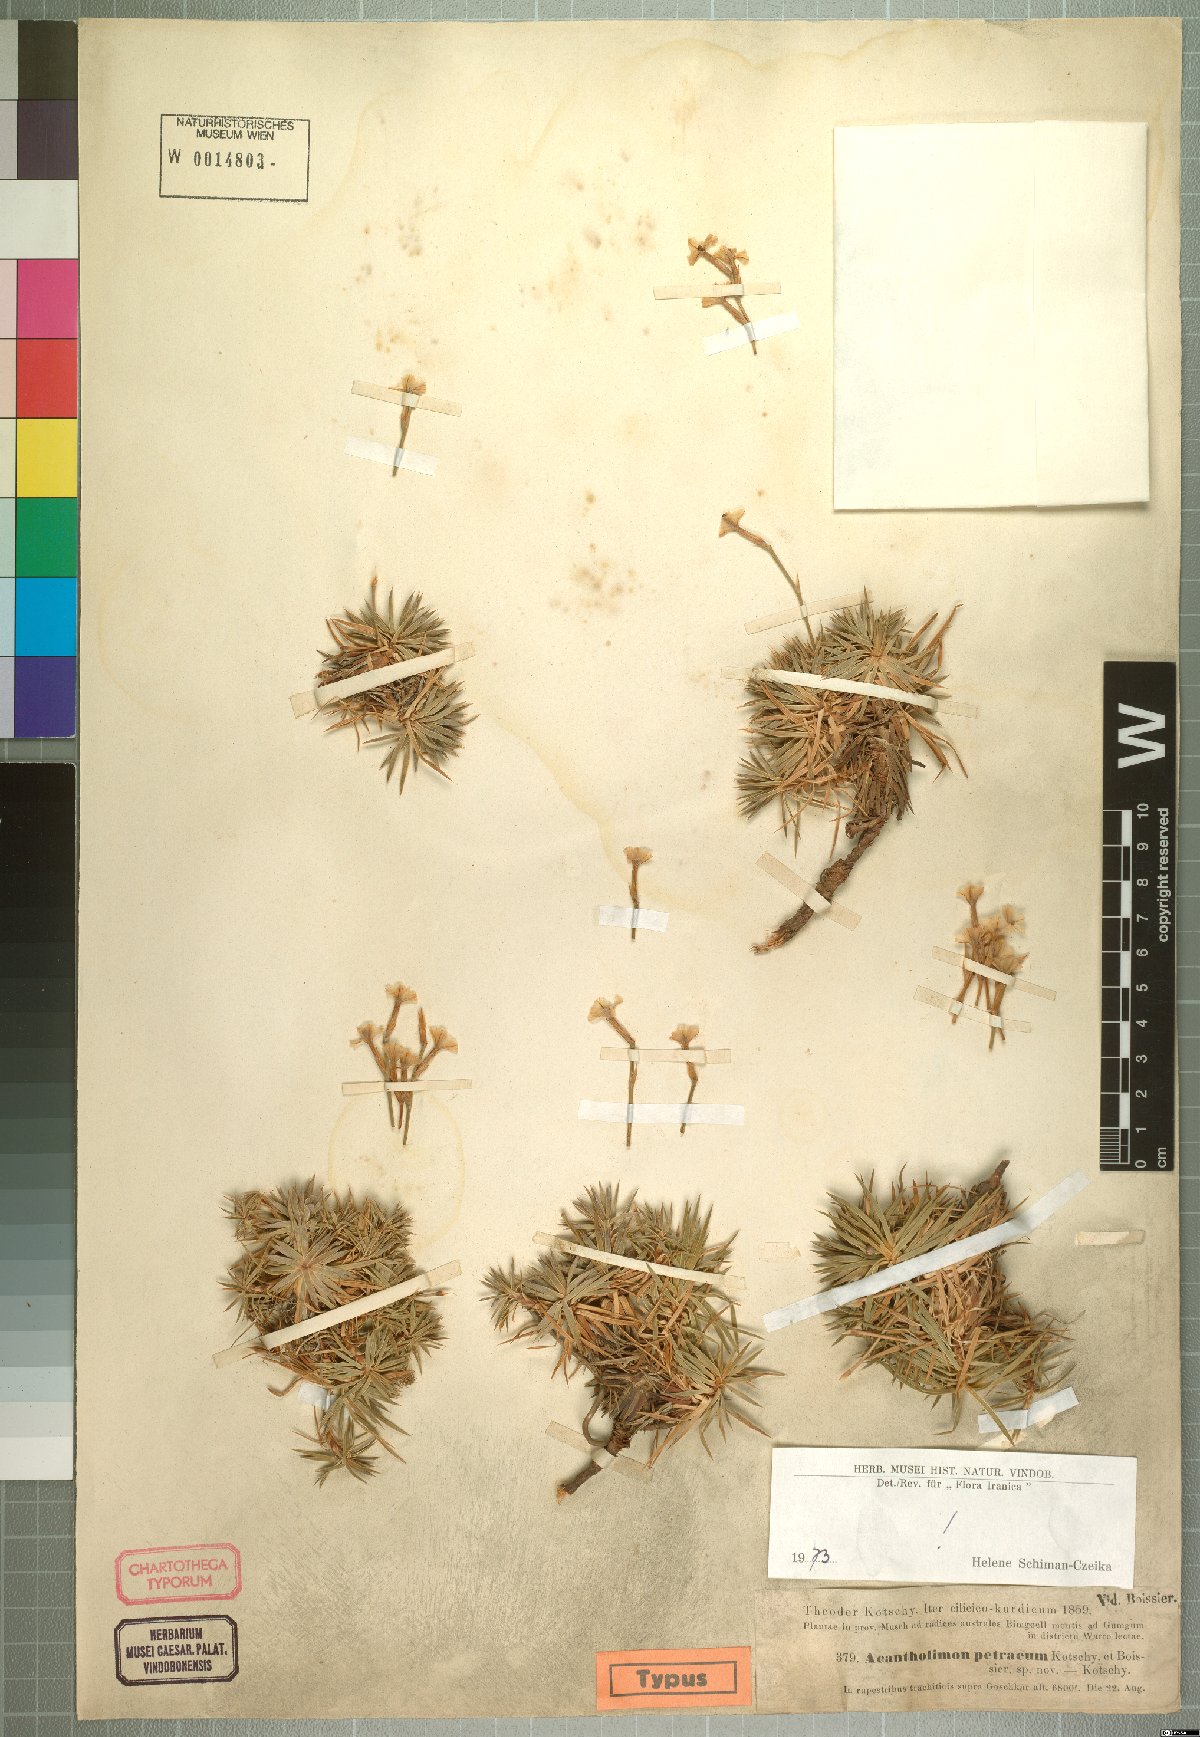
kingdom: Plantae
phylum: Tracheophyta
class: Magnoliopsida
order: Caryophyllales
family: Plumbaginaceae
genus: Acantholimon
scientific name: Acantholimon petraeum
